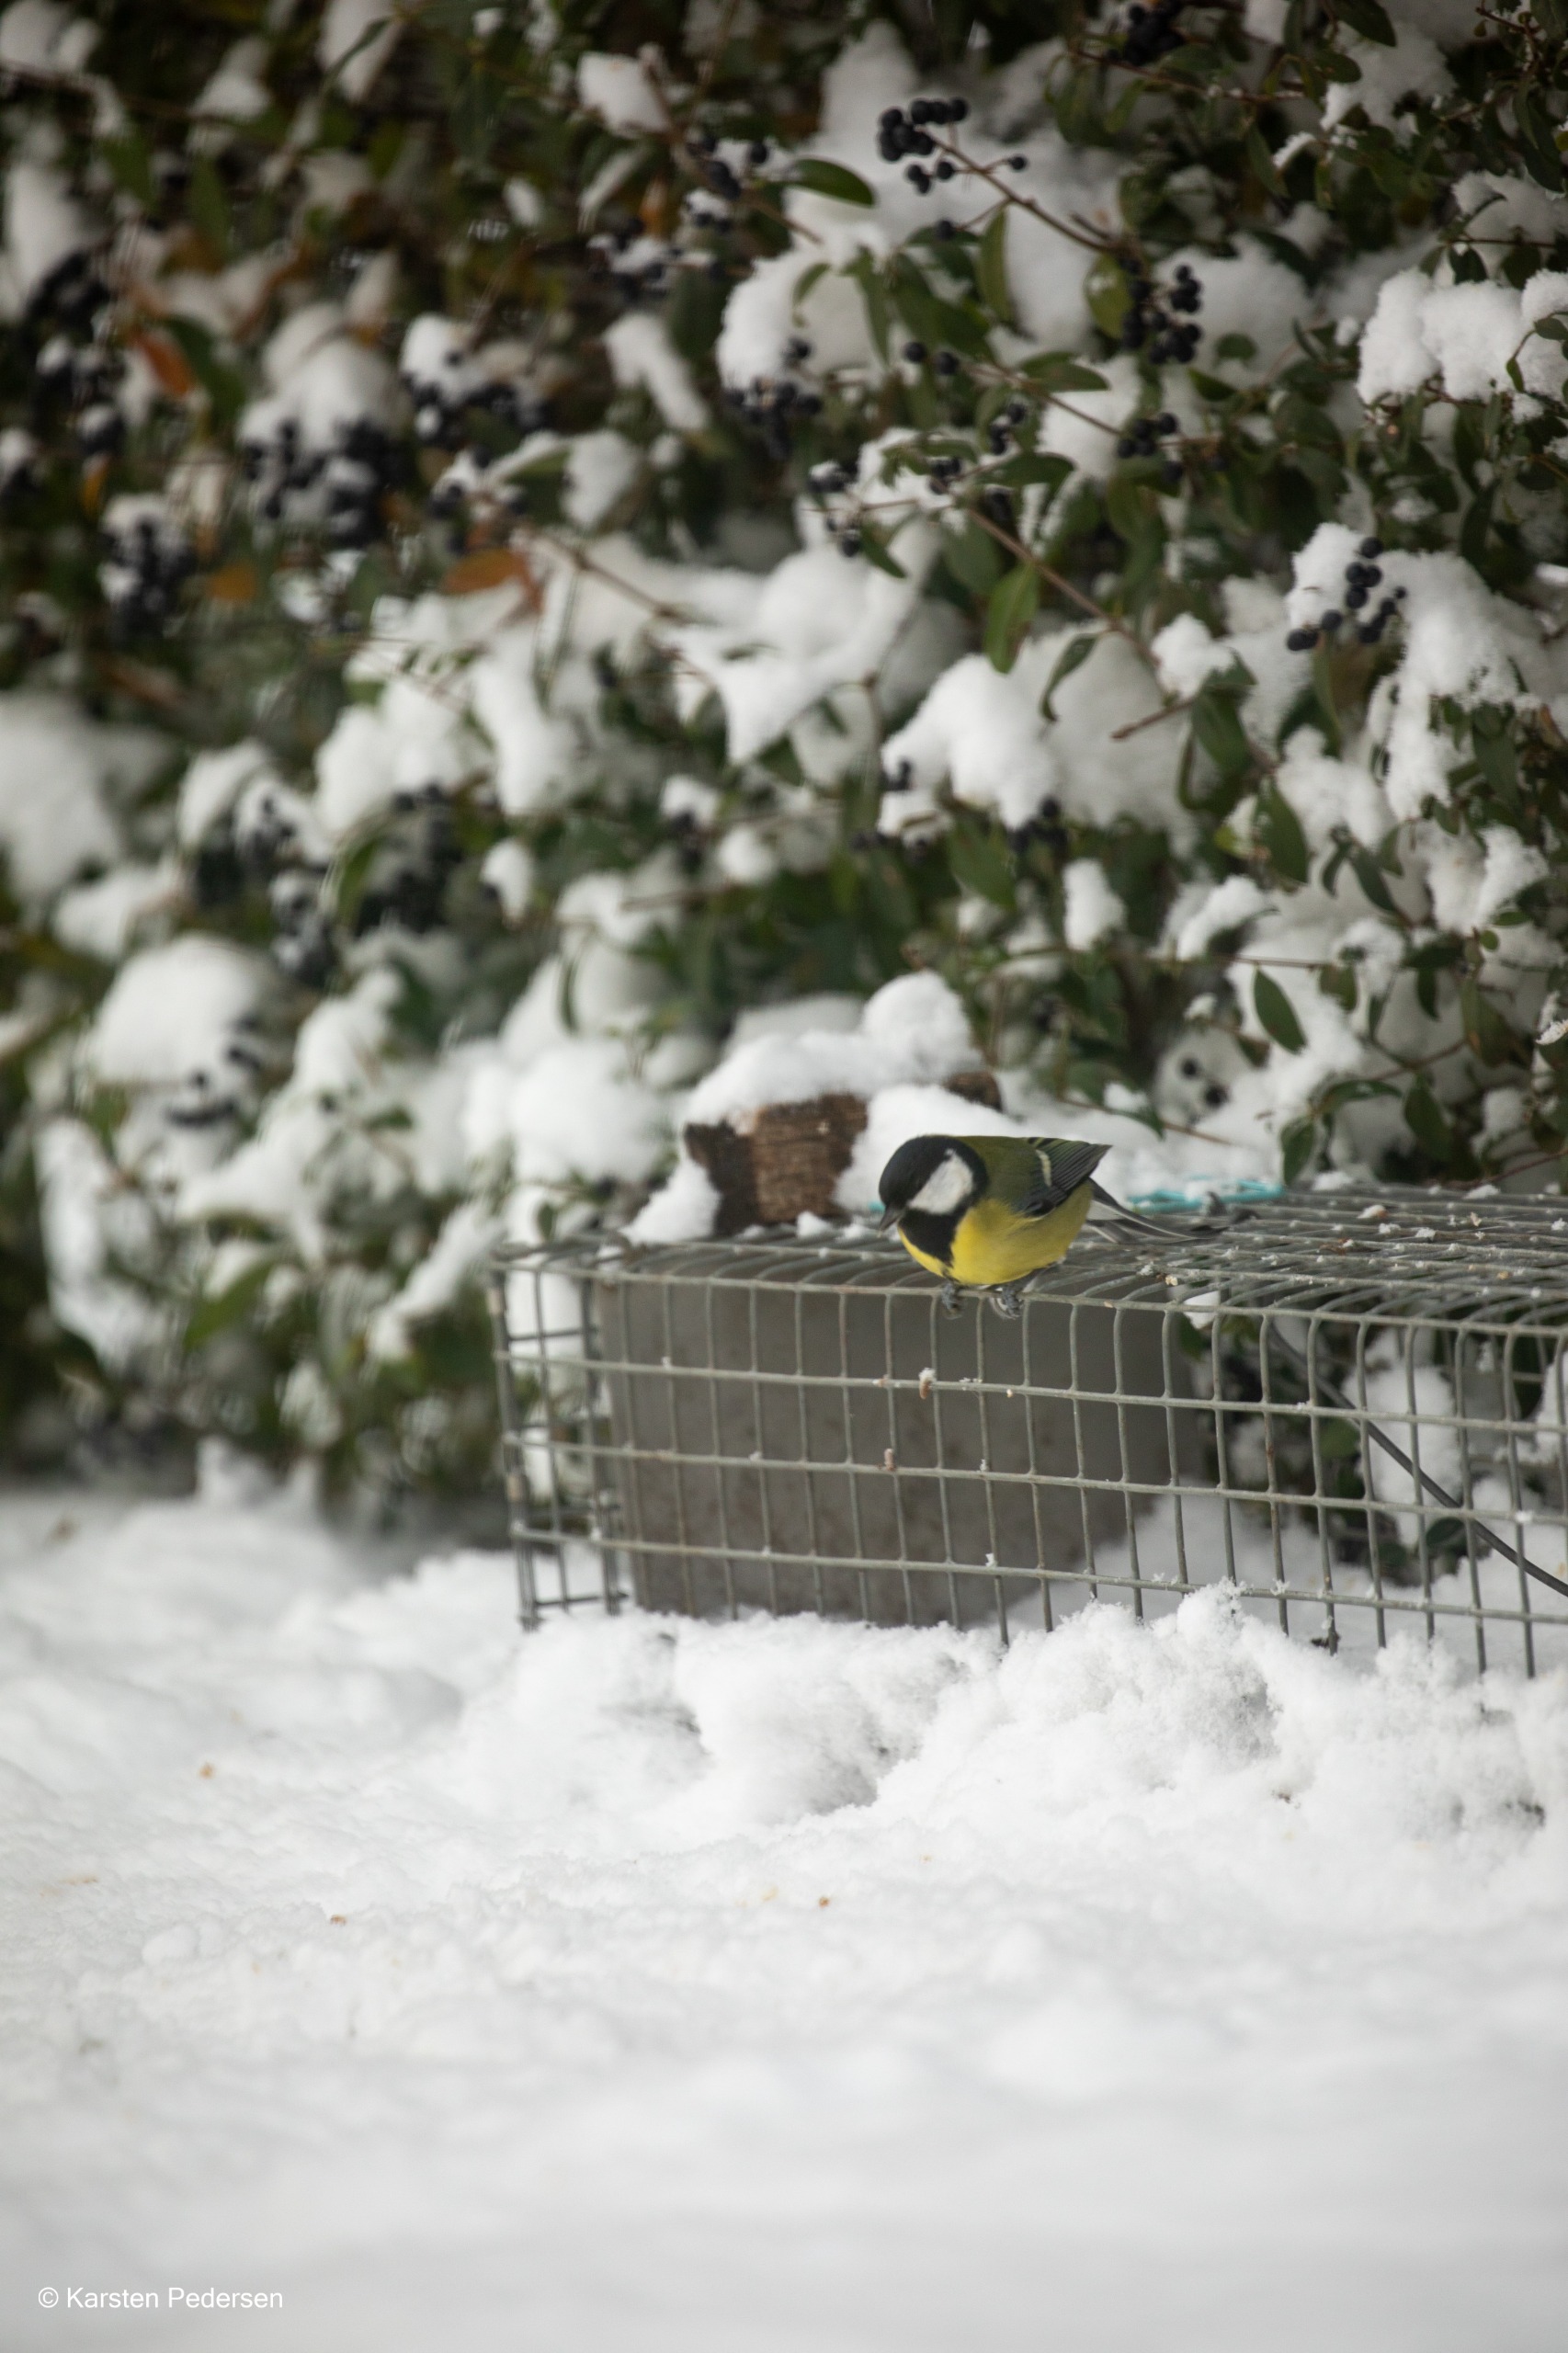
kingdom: Animalia
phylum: Chordata
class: Aves
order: Passeriformes
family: Paridae
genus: Parus
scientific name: Parus major
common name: Musvit
